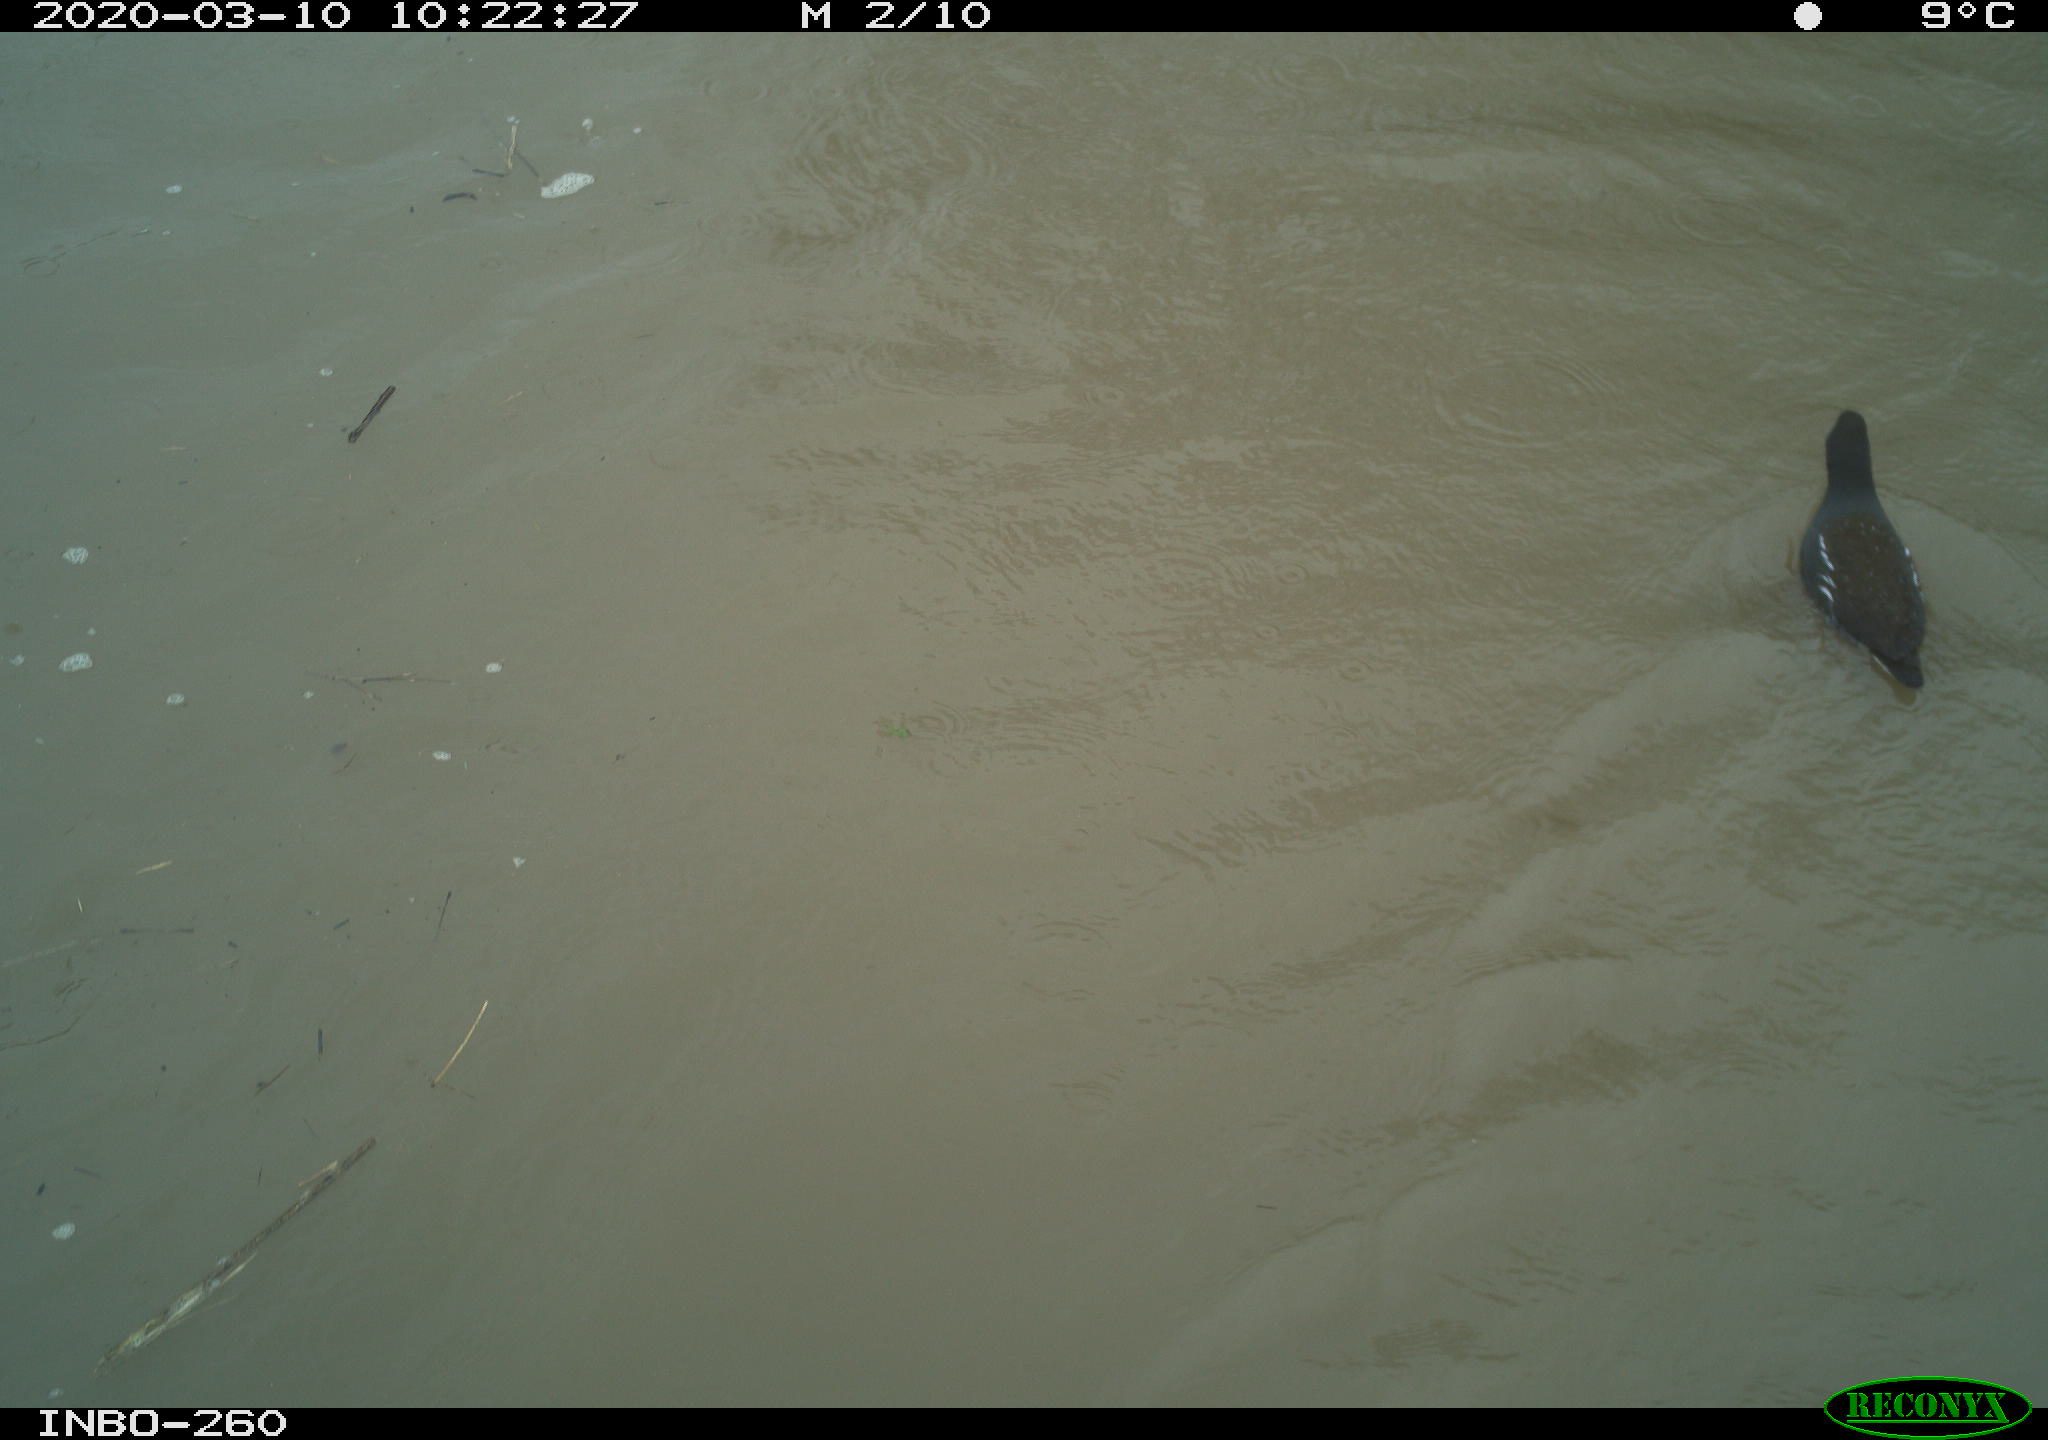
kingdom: Animalia
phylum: Chordata
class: Aves
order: Gruiformes
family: Rallidae
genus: Gallinula
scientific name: Gallinula chloropus
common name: Common moorhen
